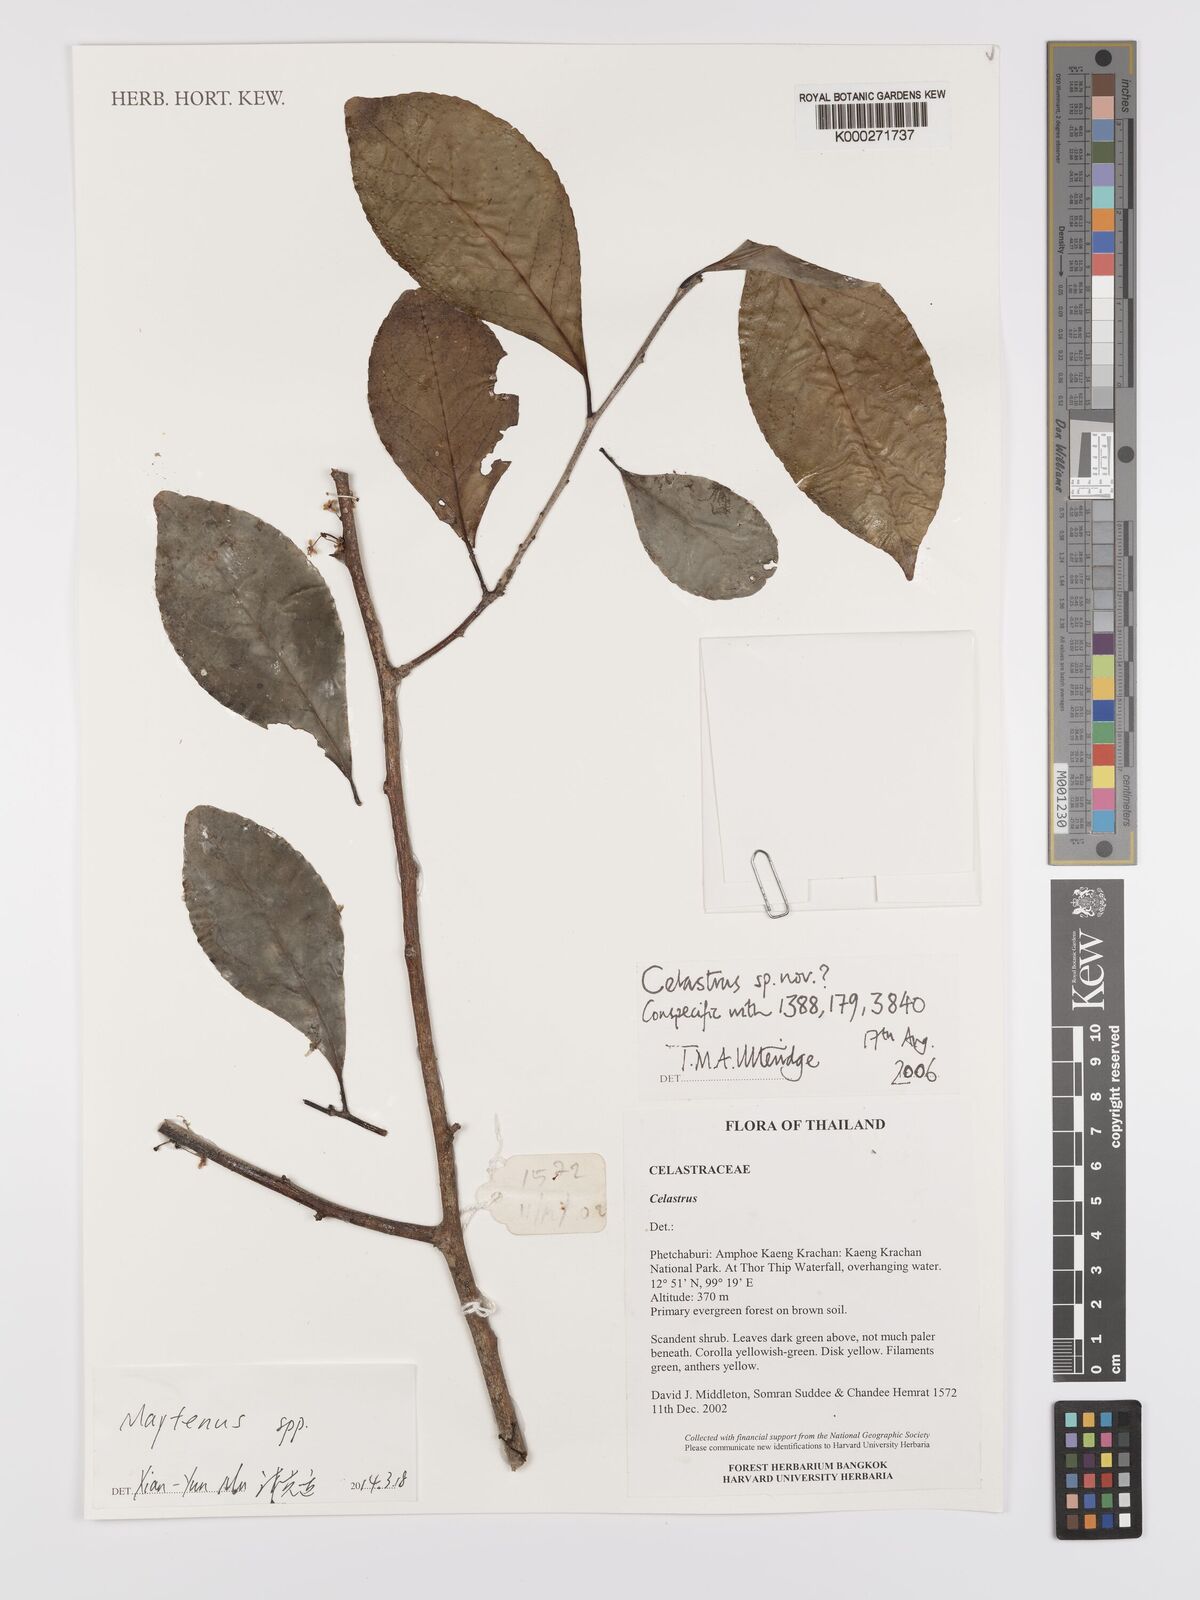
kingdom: Plantae
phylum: Tracheophyta
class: Magnoliopsida
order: Celastrales
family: Celastraceae
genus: Celastrus
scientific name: Celastrus
